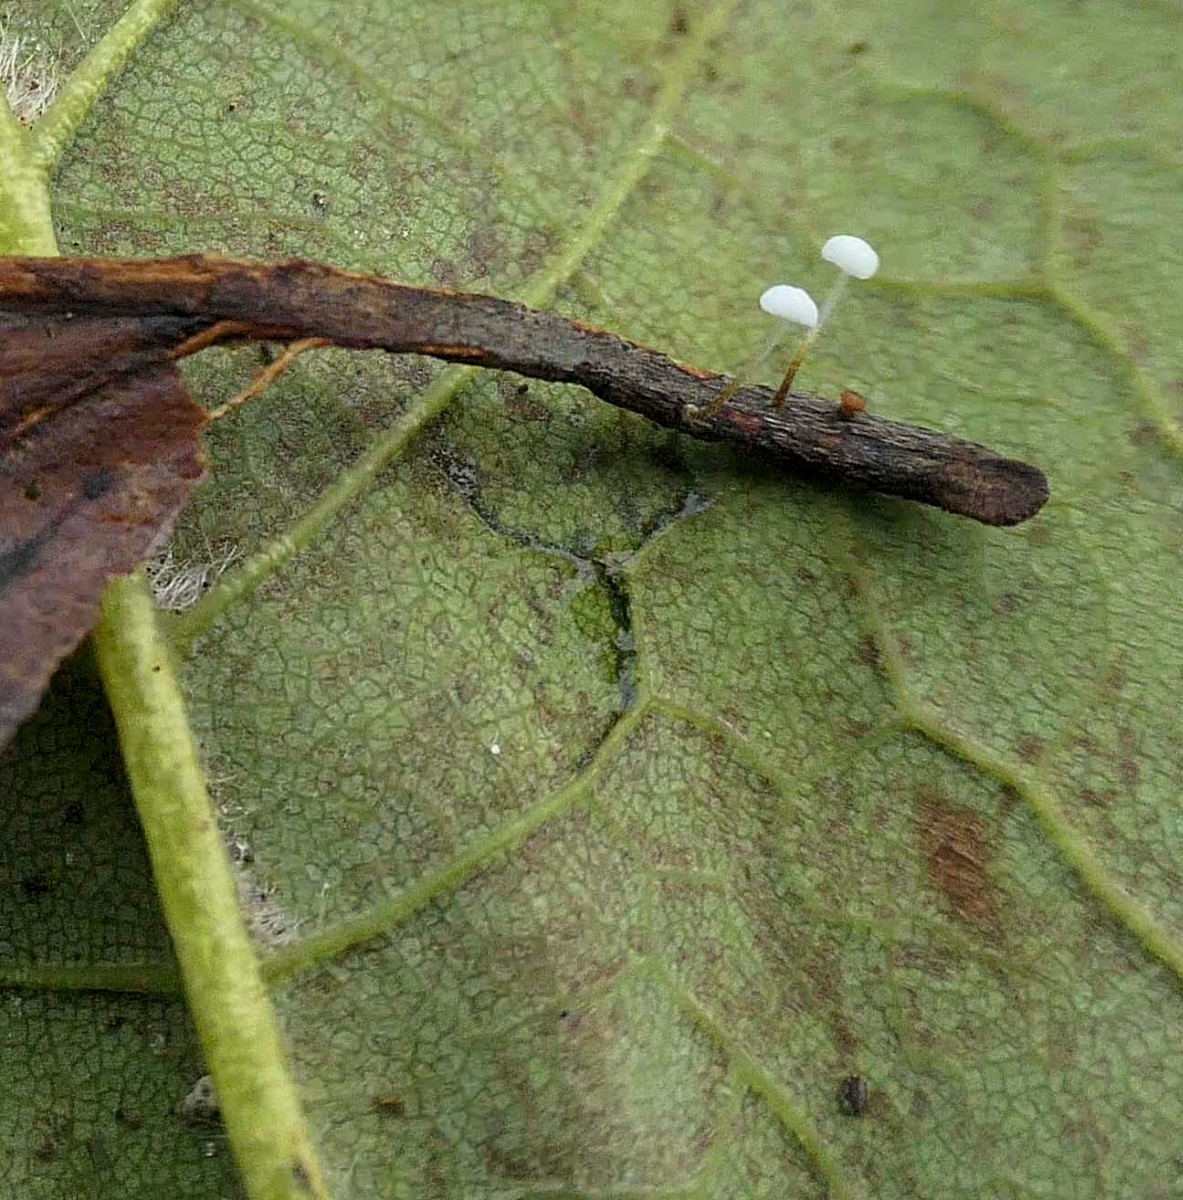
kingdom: Fungi
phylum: Basidiomycota
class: Agaricomycetes
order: Agaricales
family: Physalacriaceae
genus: Rhizomarasmius
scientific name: Rhizomarasmius setosus
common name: bøgeblads-bruskhat
